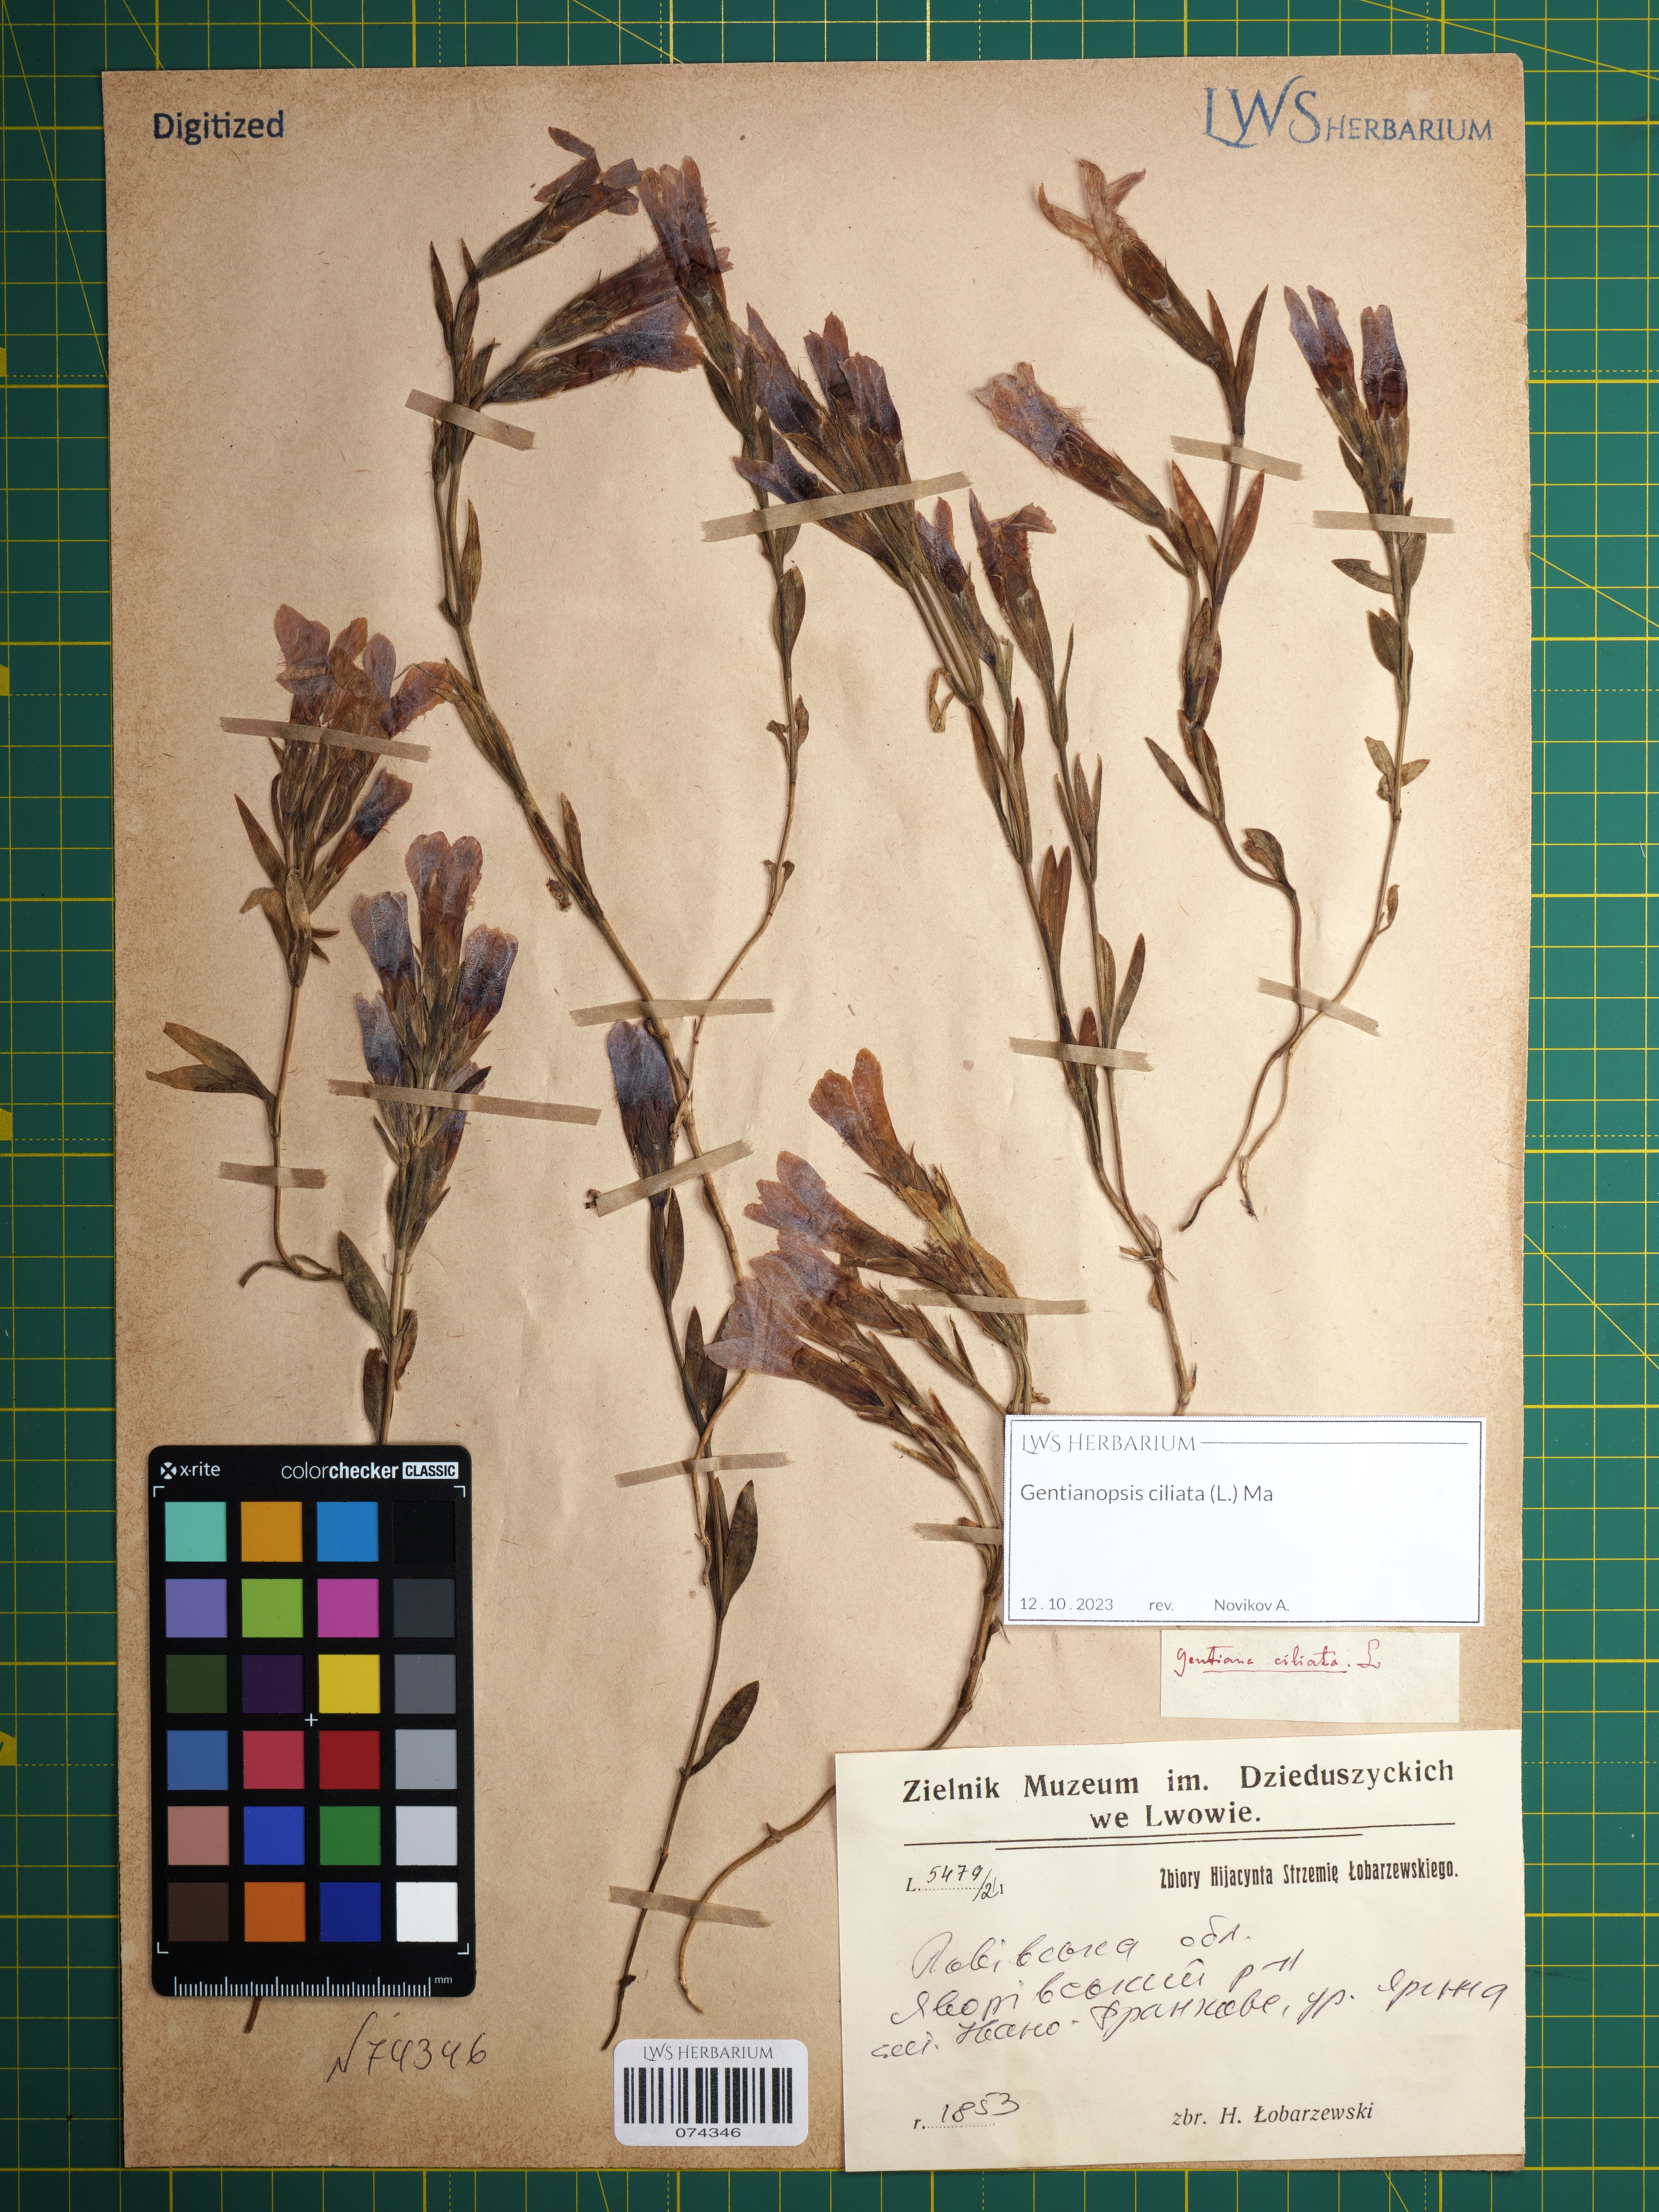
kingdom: Plantae
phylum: Tracheophyta
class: Magnoliopsida
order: Gentianales
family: Gentianaceae
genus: Gentianopsis
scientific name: Gentianopsis ciliata
